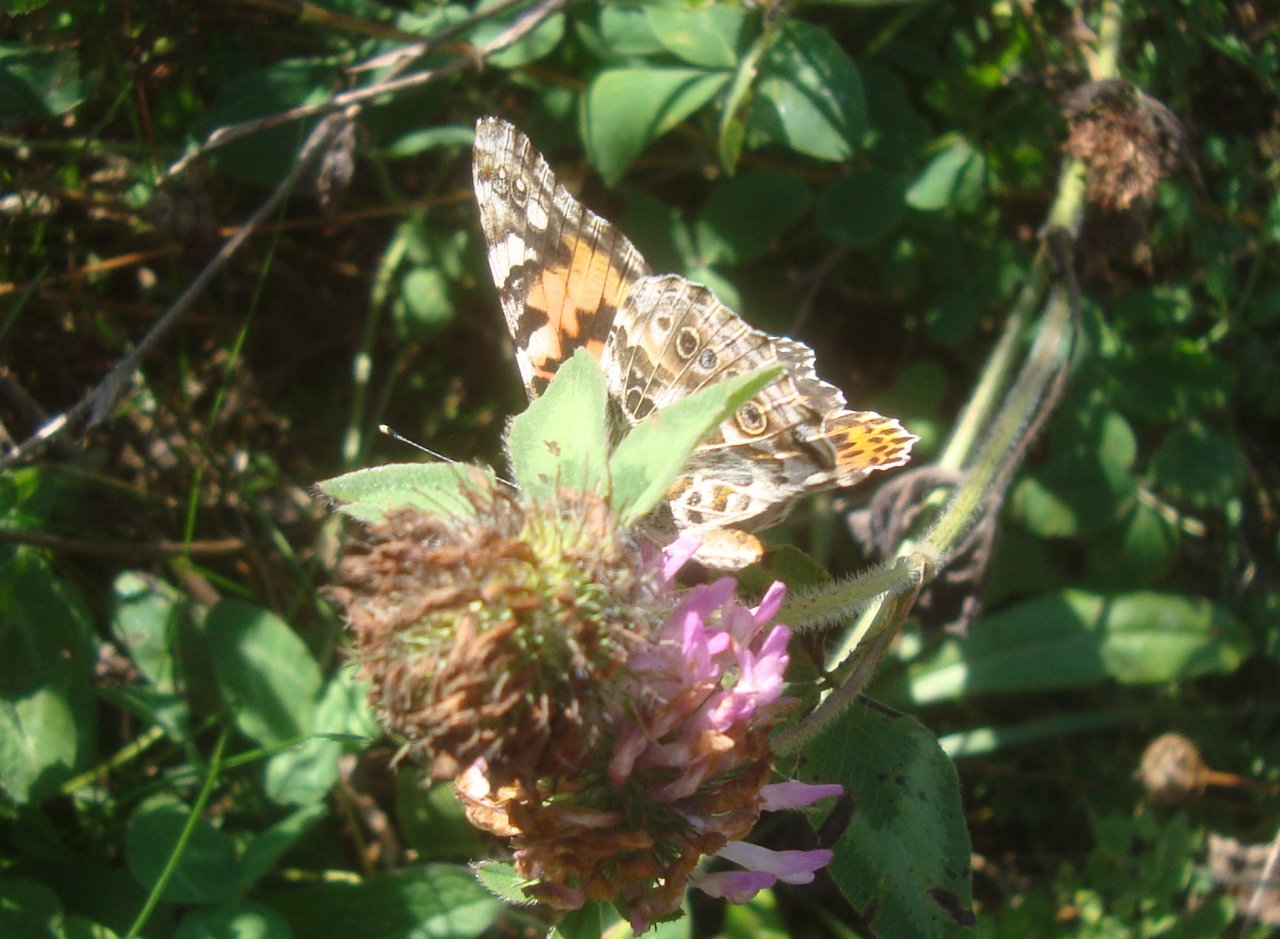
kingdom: Animalia
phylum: Arthropoda
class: Insecta
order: Lepidoptera
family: Nymphalidae
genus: Vanessa
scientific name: Vanessa cardui
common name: Painted Lady
